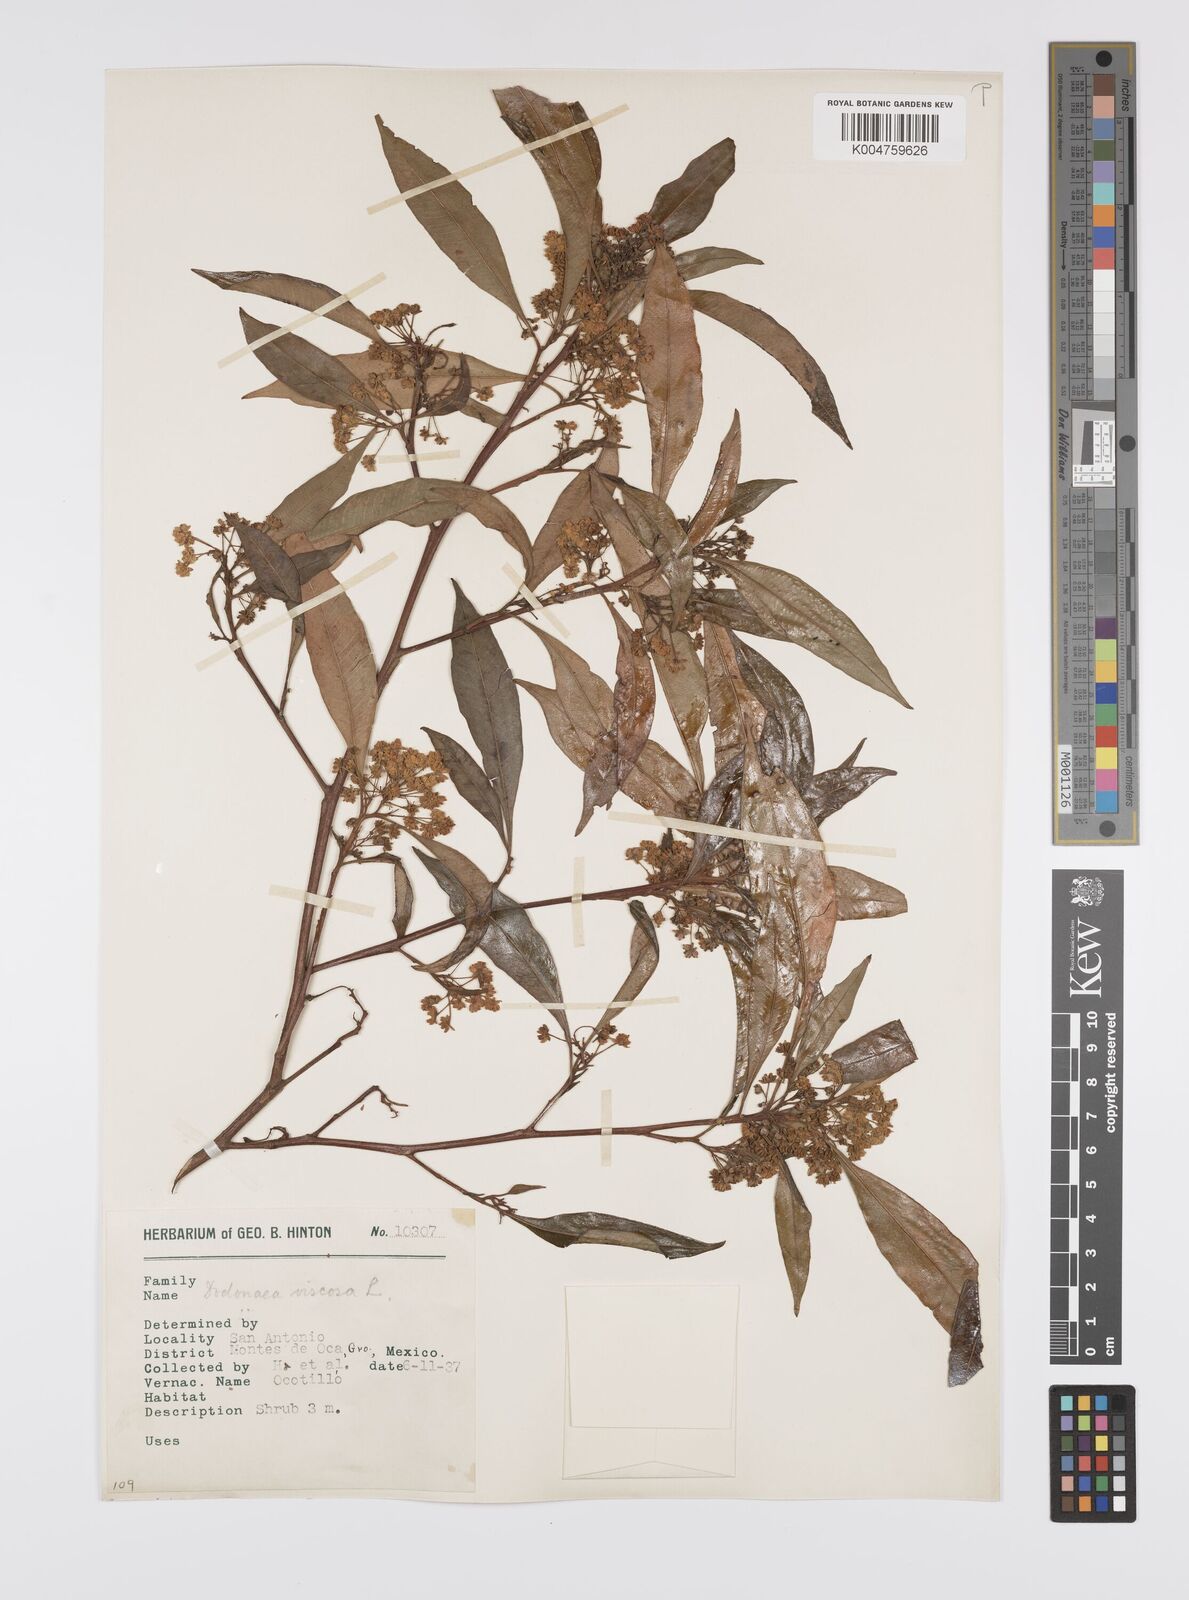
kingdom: Plantae
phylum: Tracheophyta
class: Magnoliopsida
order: Sapindales
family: Sapindaceae
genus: Dodonaea
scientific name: Dodonaea viscosa
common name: Hopbush
